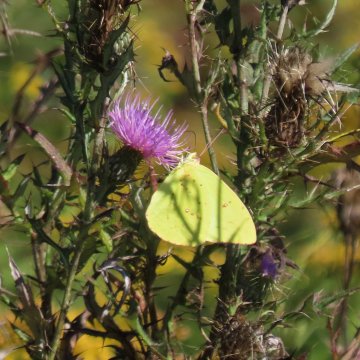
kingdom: Animalia
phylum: Arthropoda
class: Insecta
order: Lepidoptera
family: Pieridae
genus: Phoebis
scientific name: Phoebis sennae
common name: Cloudless Sulphur
